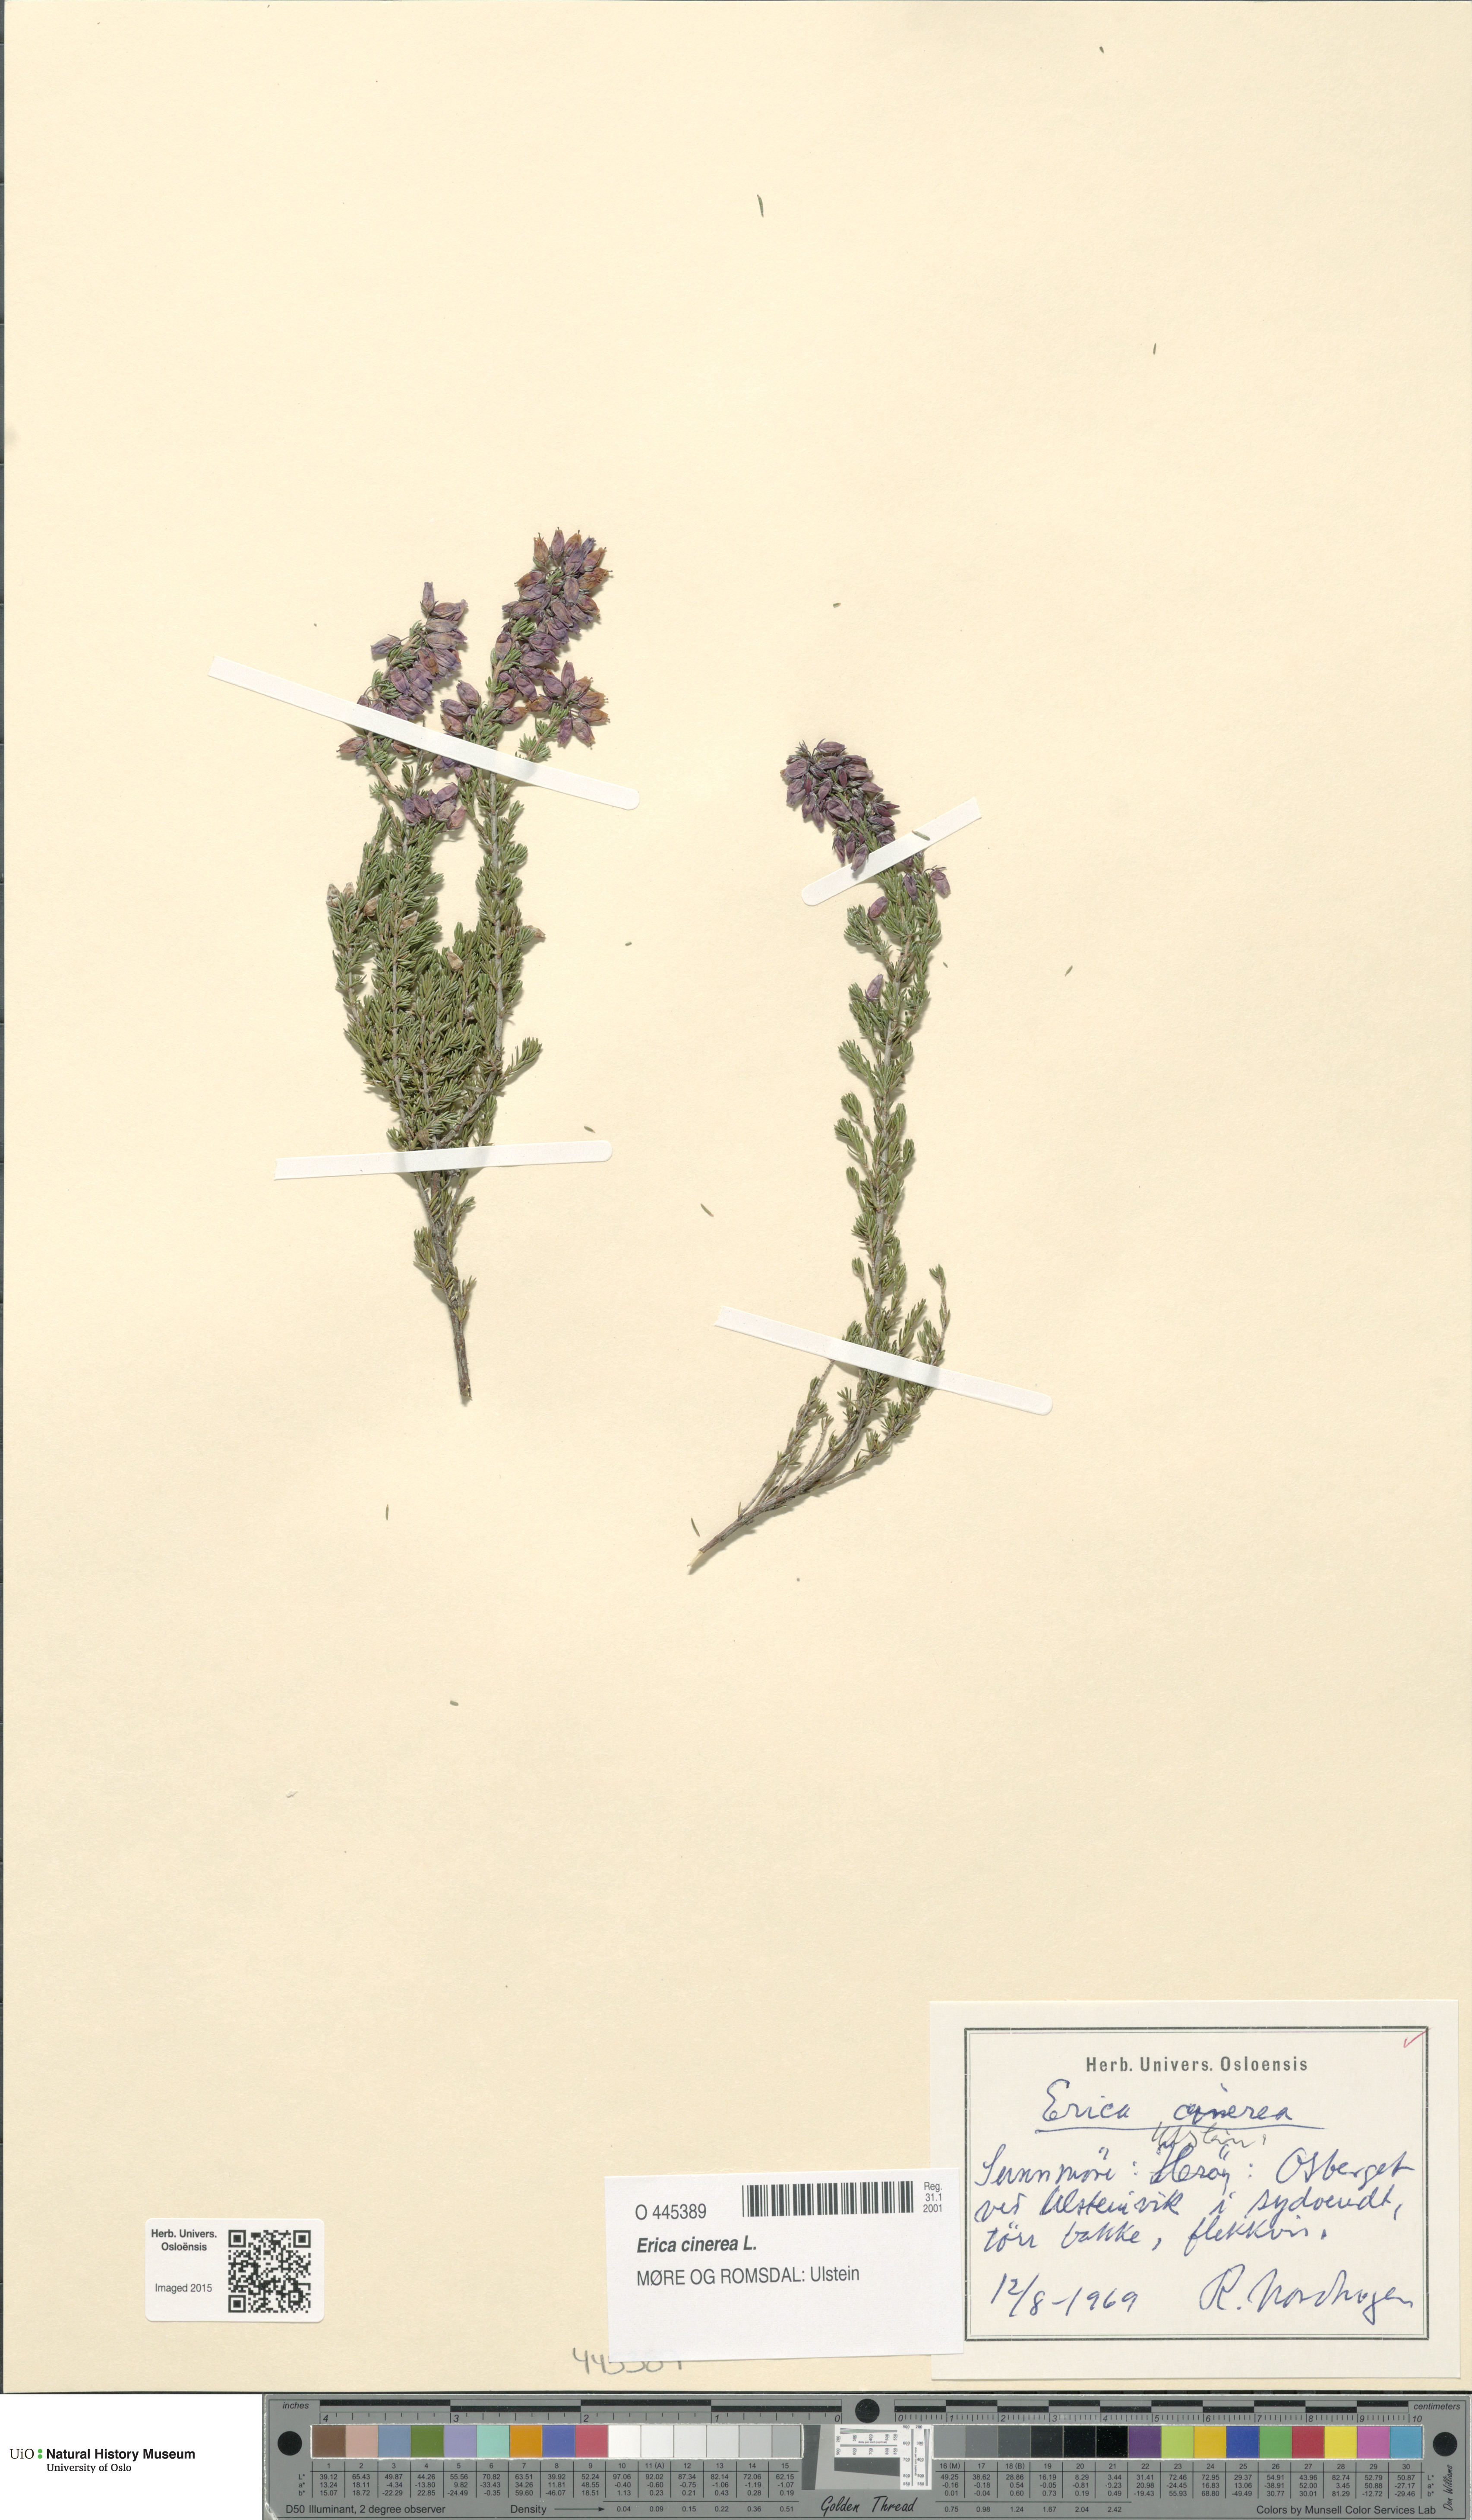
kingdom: Plantae
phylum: Tracheophyta
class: Magnoliopsida
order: Ericales
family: Ericaceae
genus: Erica
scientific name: Erica cinerea
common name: Bell heather
